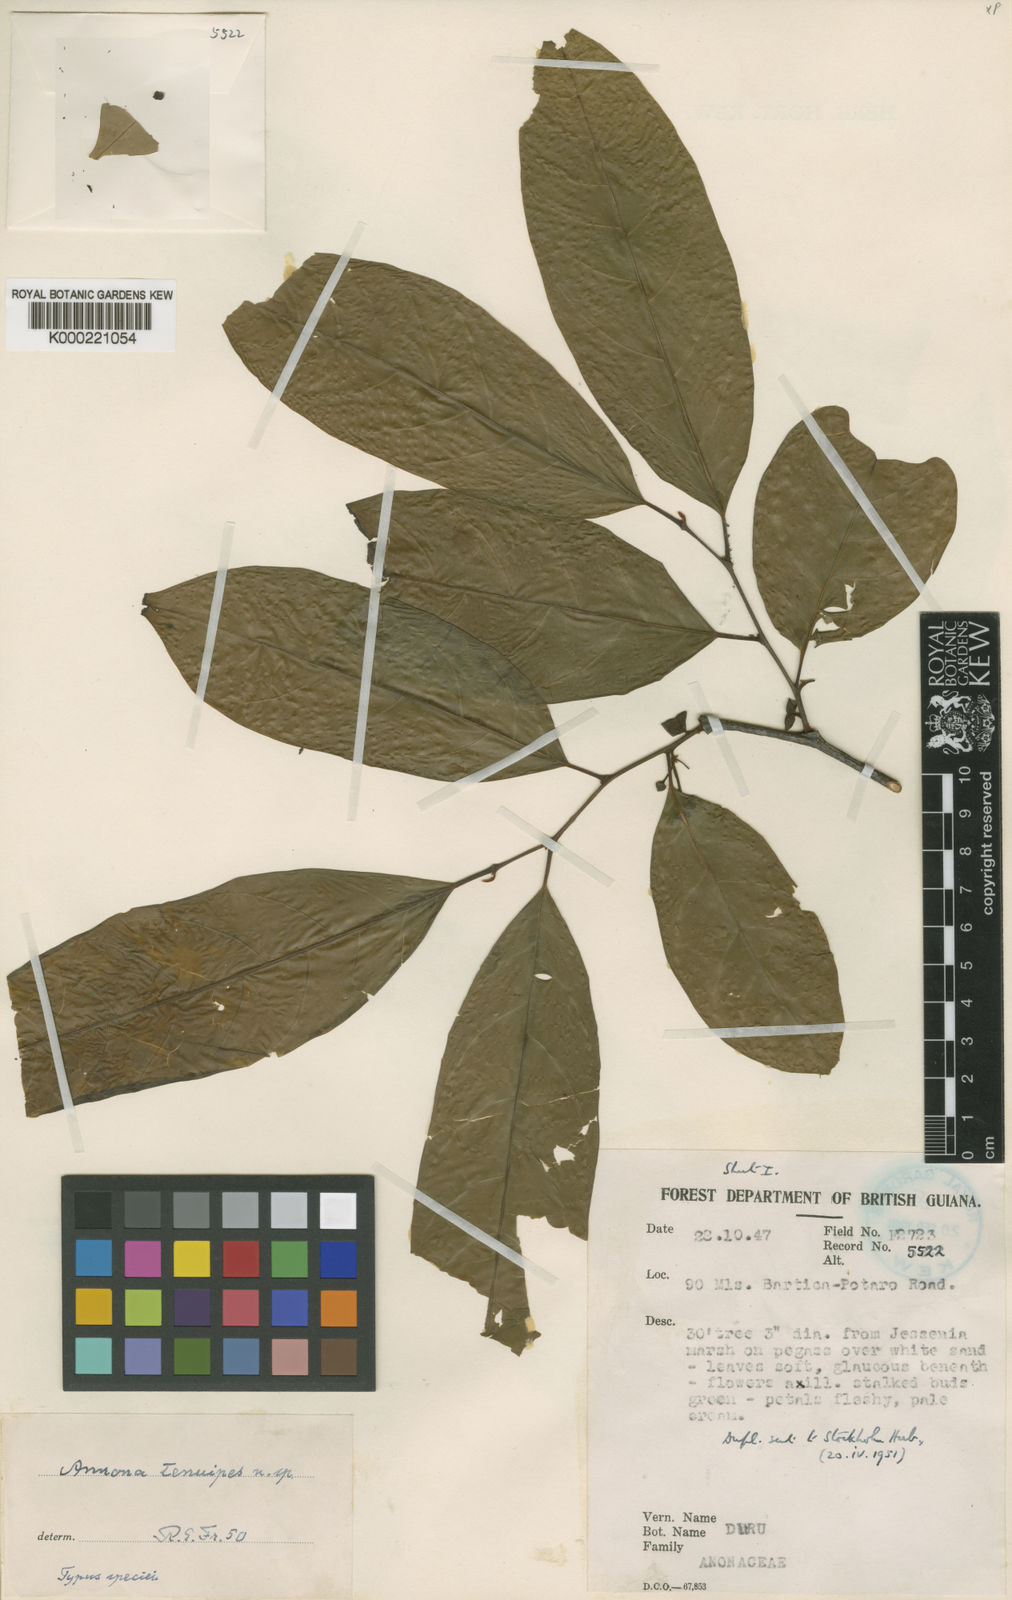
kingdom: Plantae
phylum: Tracheophyta
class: Magnoliopsida
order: Magnoliales
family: Annonaceae
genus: Annona
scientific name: Annona symphyocarpa
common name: Custard apple
